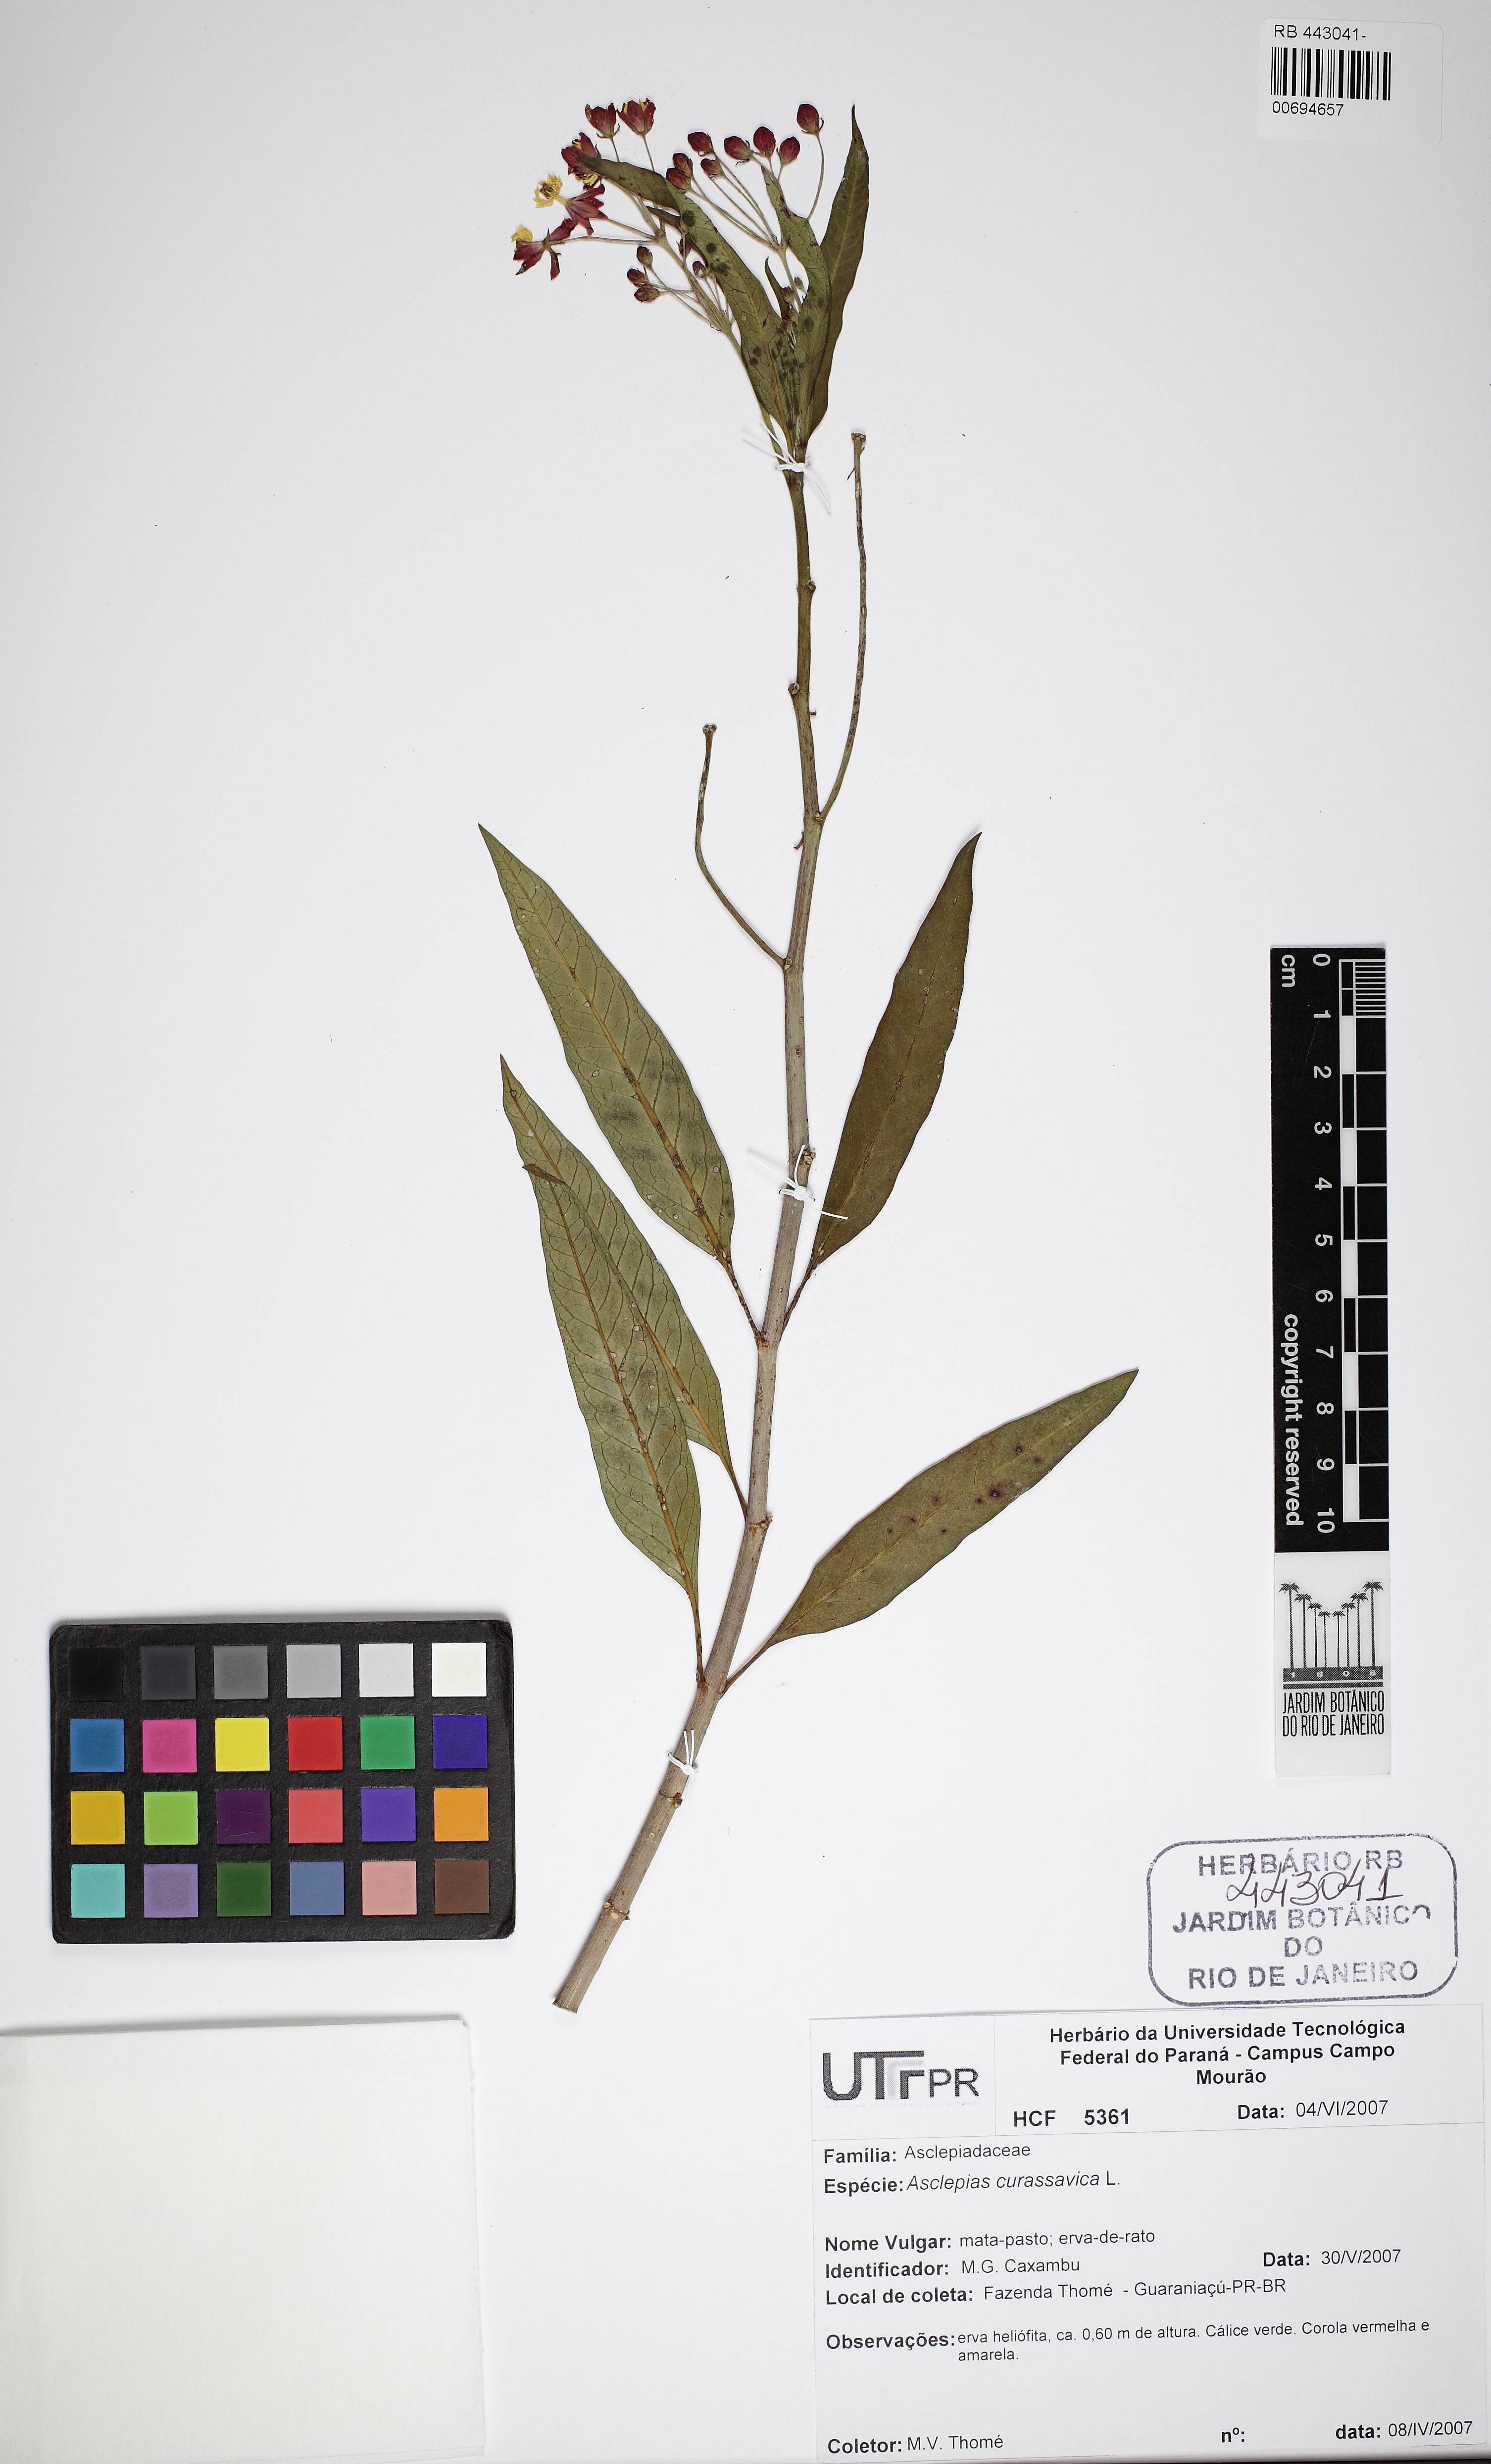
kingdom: Plantae
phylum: Tracheophyta
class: Magnoliopsida
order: Gentianales
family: Apocynaceae
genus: Asclepias
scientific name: Asclepias curassavica
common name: Bloodflower
